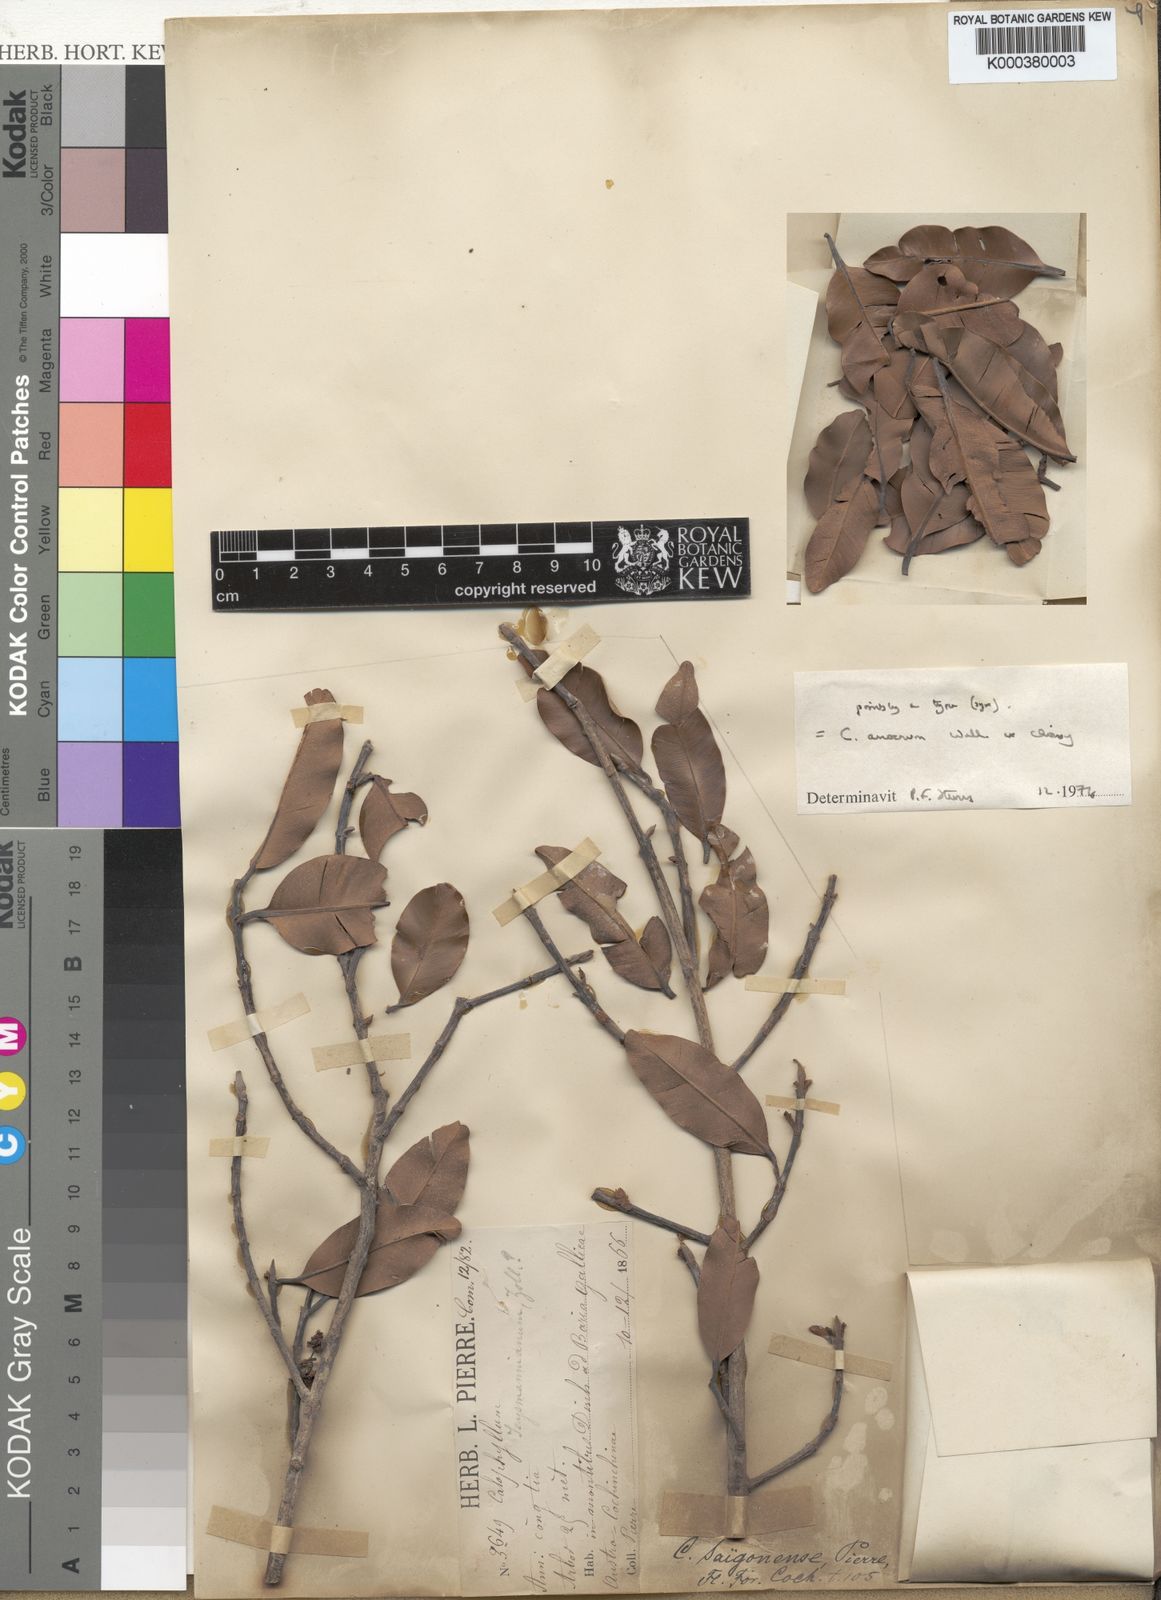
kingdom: Plantae
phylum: Tracheophyta
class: Magnoliopsida
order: Malpighiales
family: Calophyllaceae
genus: Calophyllum
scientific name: Calophyllum calaba
